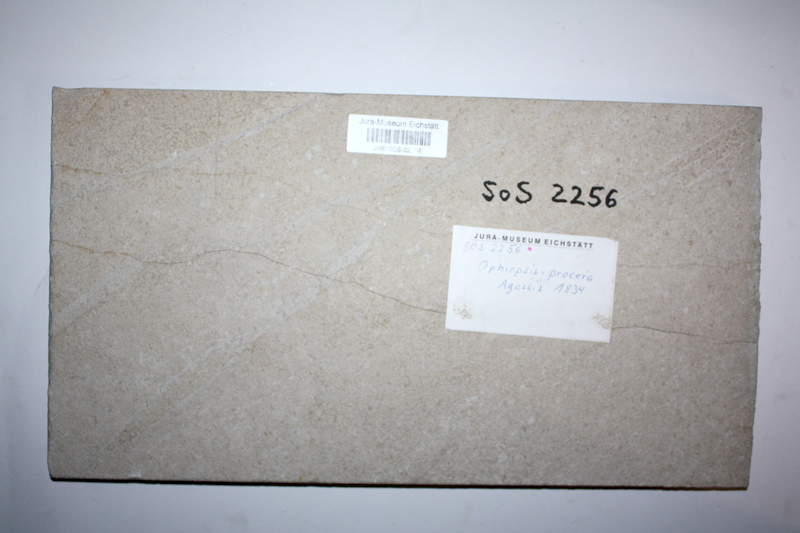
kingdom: Animalia
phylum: Chordata
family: Ophiopsiellidae
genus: Ophiopsiella
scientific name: Ophiopsiella procera
